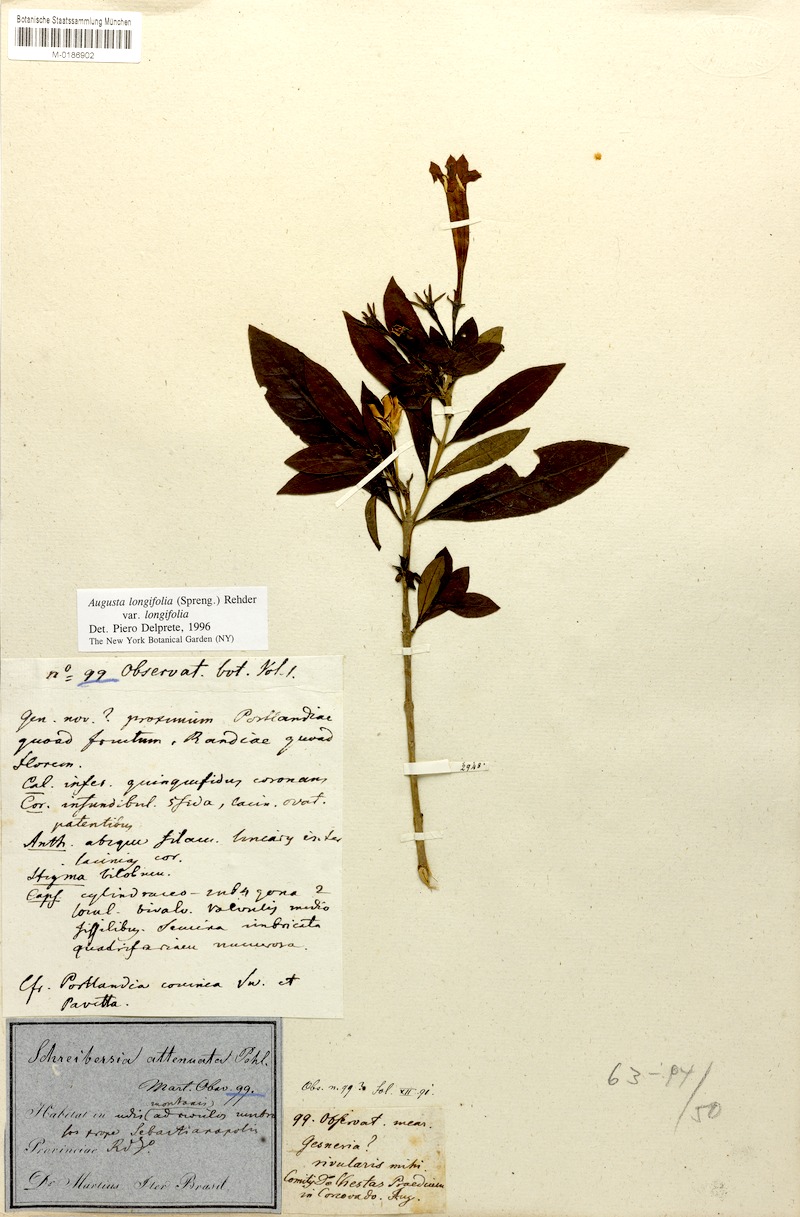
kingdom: Plantae
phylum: Tracheophyta
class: Magnoliopsida
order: Gentianales
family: Rubiaceae
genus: Augusta
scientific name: Augusta longifolia
